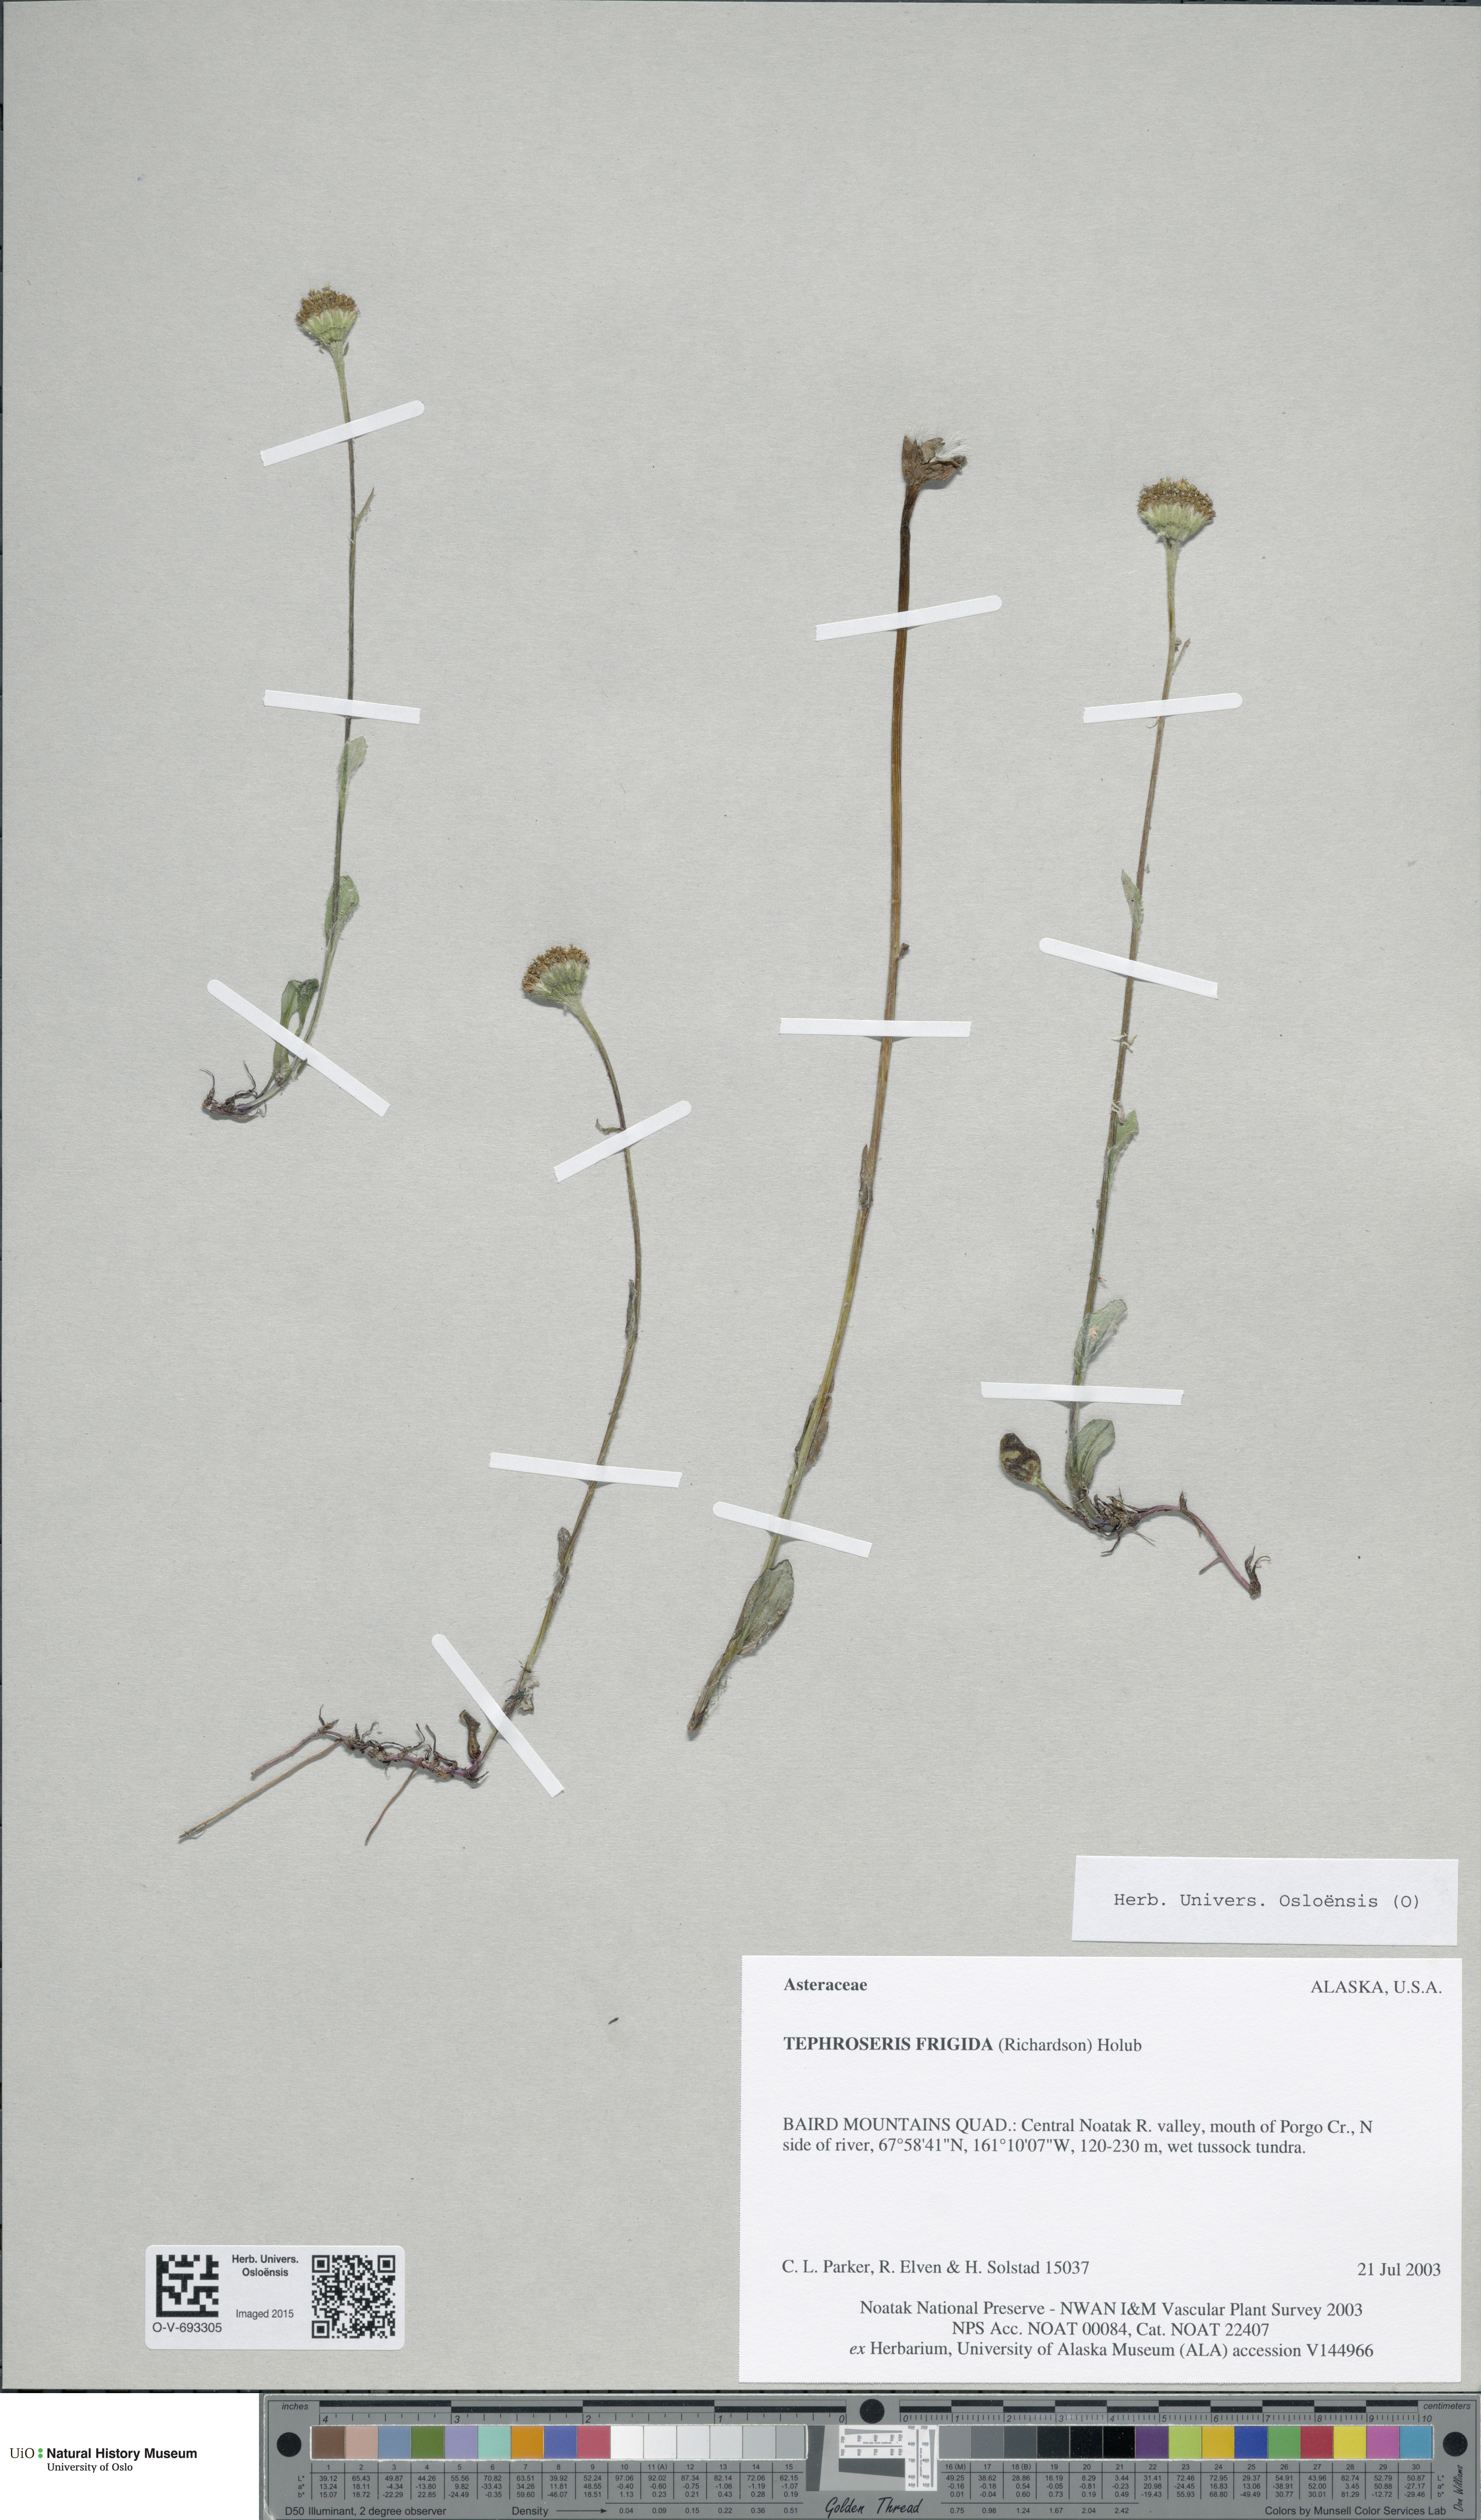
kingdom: Plantae
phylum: Tracheophyta
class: Magnoliopsida
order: Asterales
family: Asteraceae
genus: Tephroseris
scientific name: Tephroseris integrifolia
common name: Field fleawort
